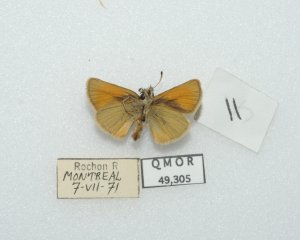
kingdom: Animalia
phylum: Arthropoda
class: Insecta
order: Lepidoptera
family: Hesperiidae
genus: Thymelicus
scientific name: Thymelicus lineola
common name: European Skipper
